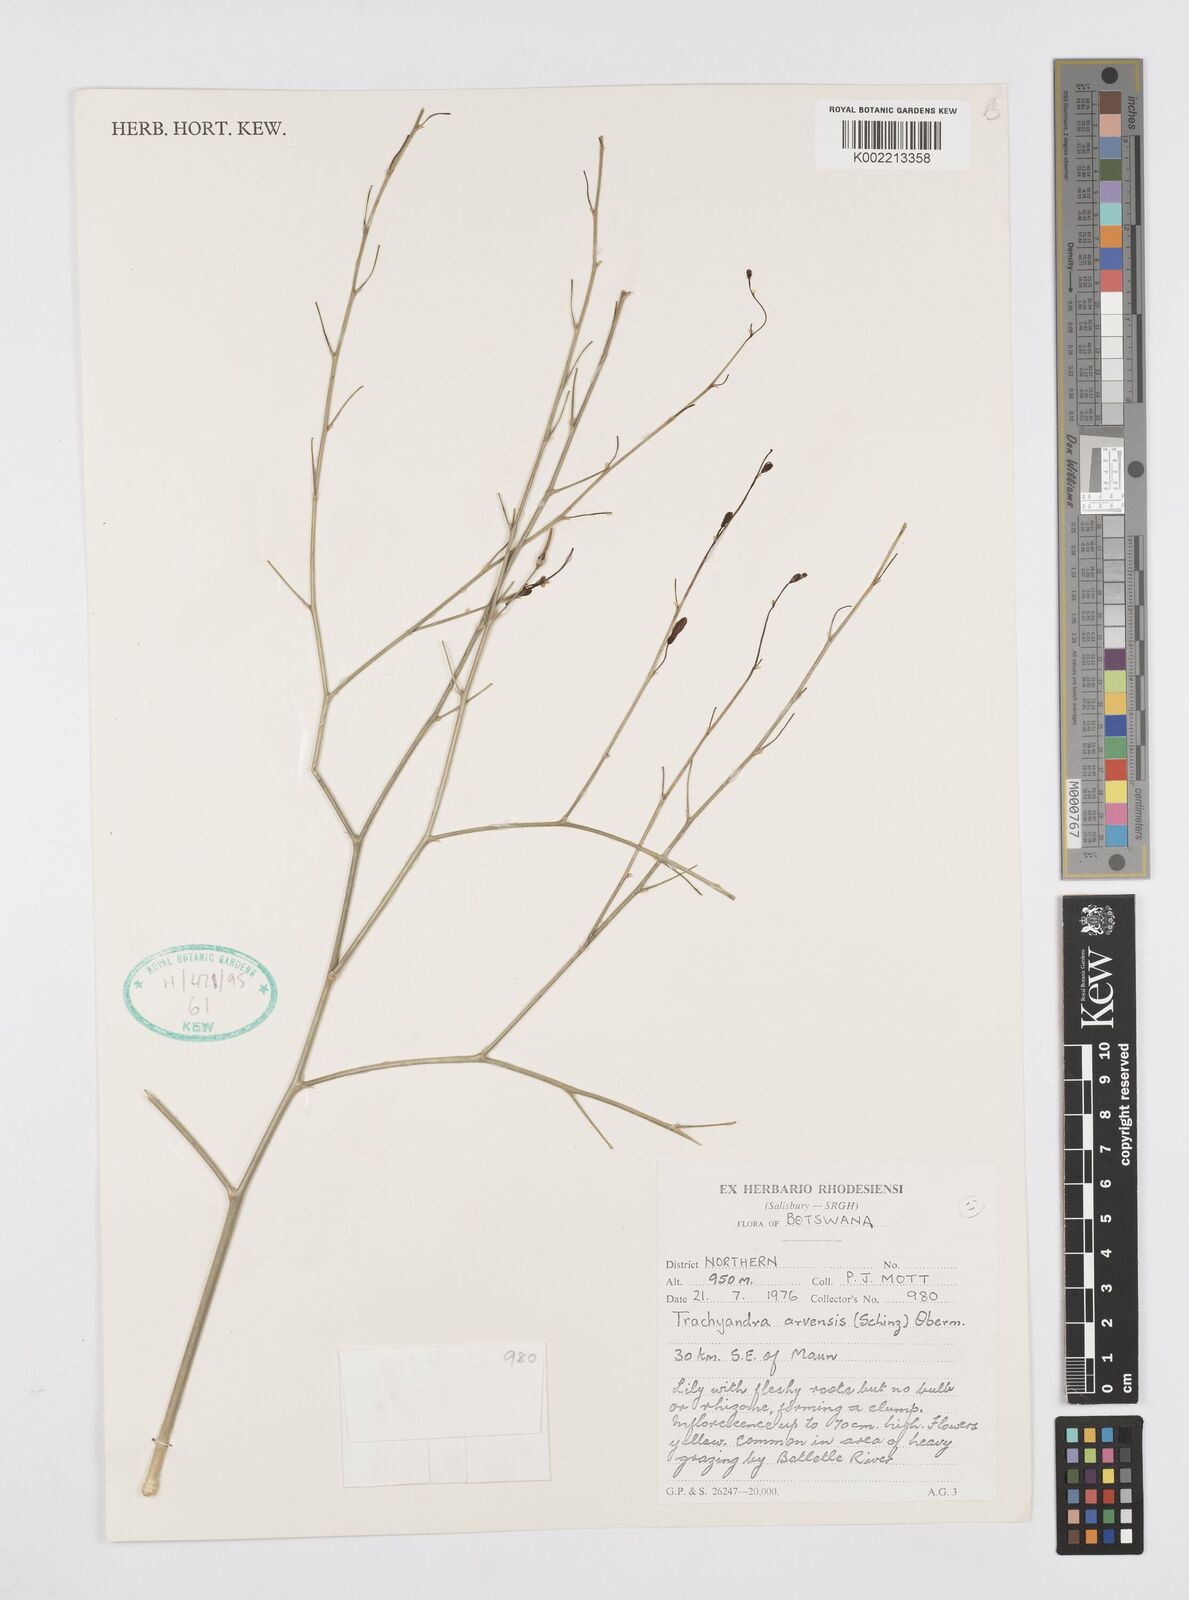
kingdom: Plantae
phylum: Tracheophyta
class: Liliopsida
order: Asparagales
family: Asphodelaceae
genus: Trachyandra
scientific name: Trachyandra arvensis
